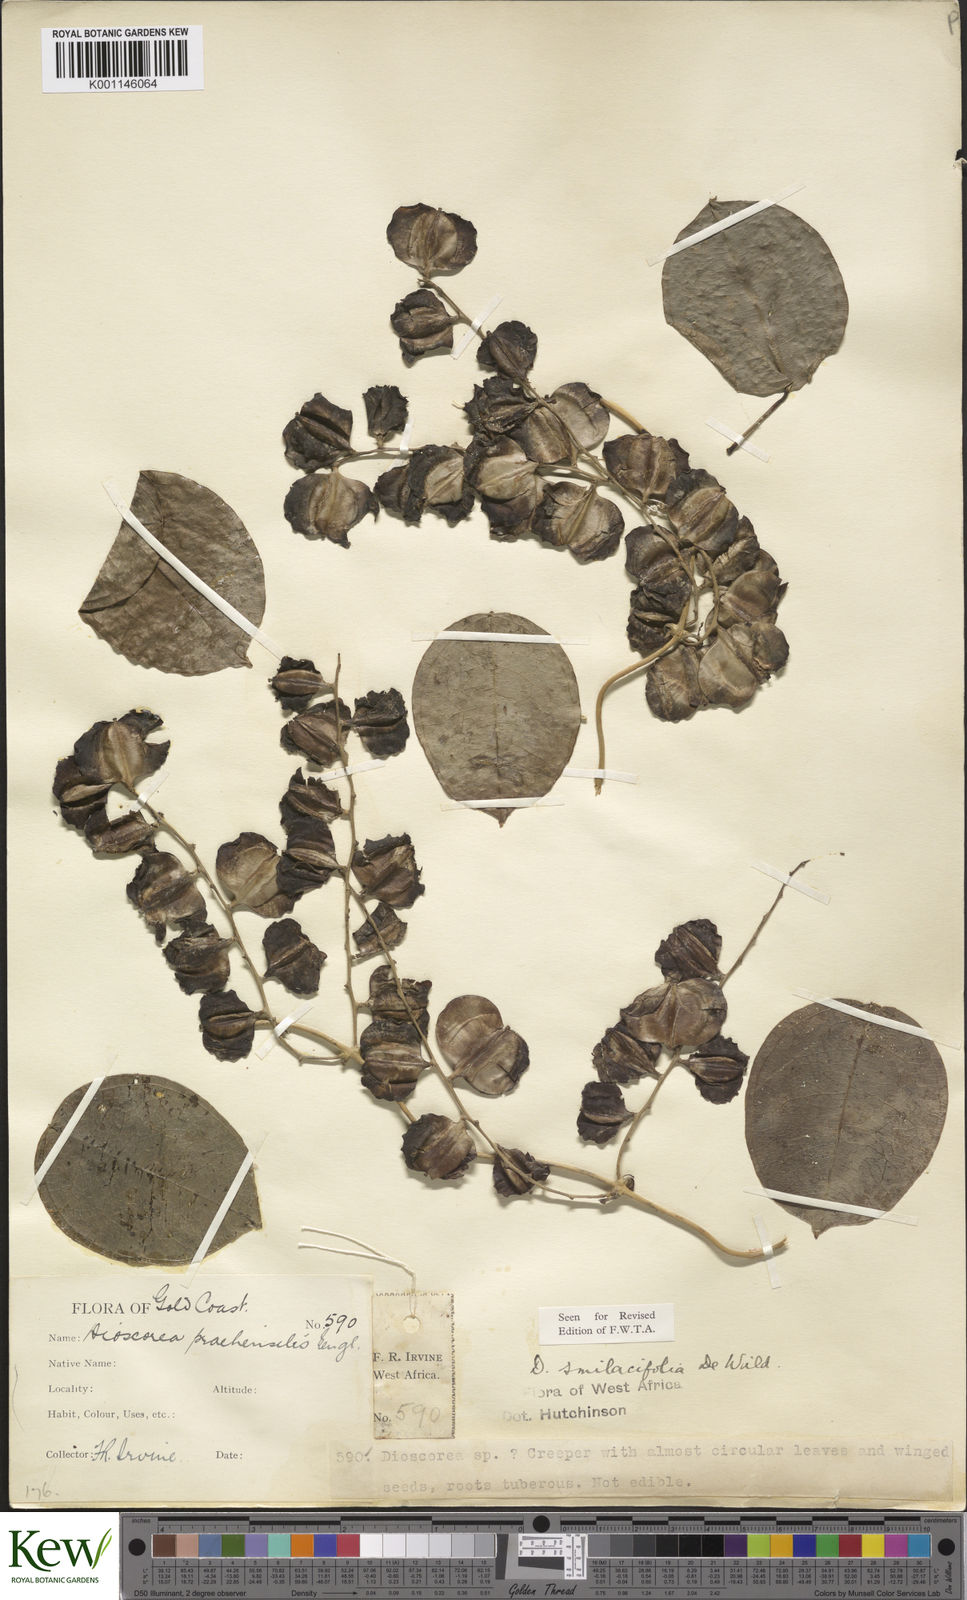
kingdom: Plantae
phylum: Tracheophyta
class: Liliopsida
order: Dioscoreales
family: Dioscoreaceae
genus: Dioscorea
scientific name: Dioscorea smilacifolia
